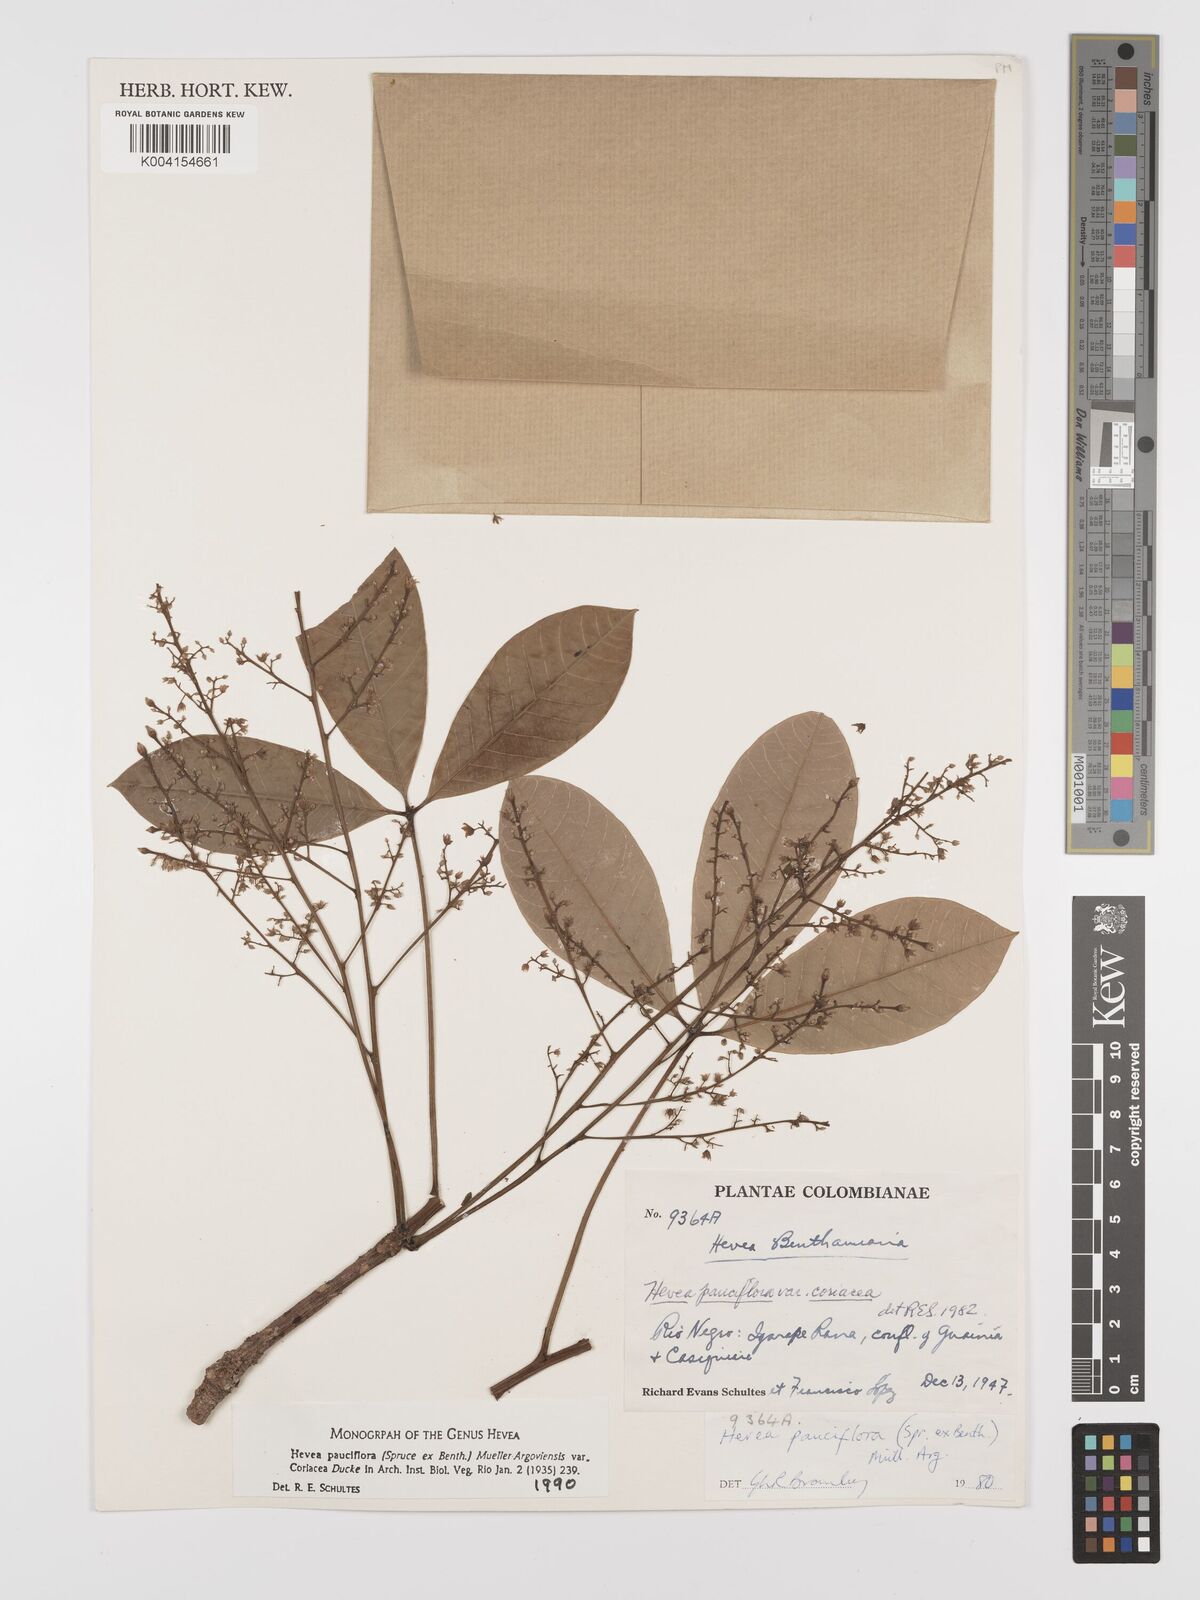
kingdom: Plantae
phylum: Tracheophyta
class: Magnoliopsida
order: Malpighiales
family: Euphorbiaceae
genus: Hevea
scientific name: Hevea pauciflora
